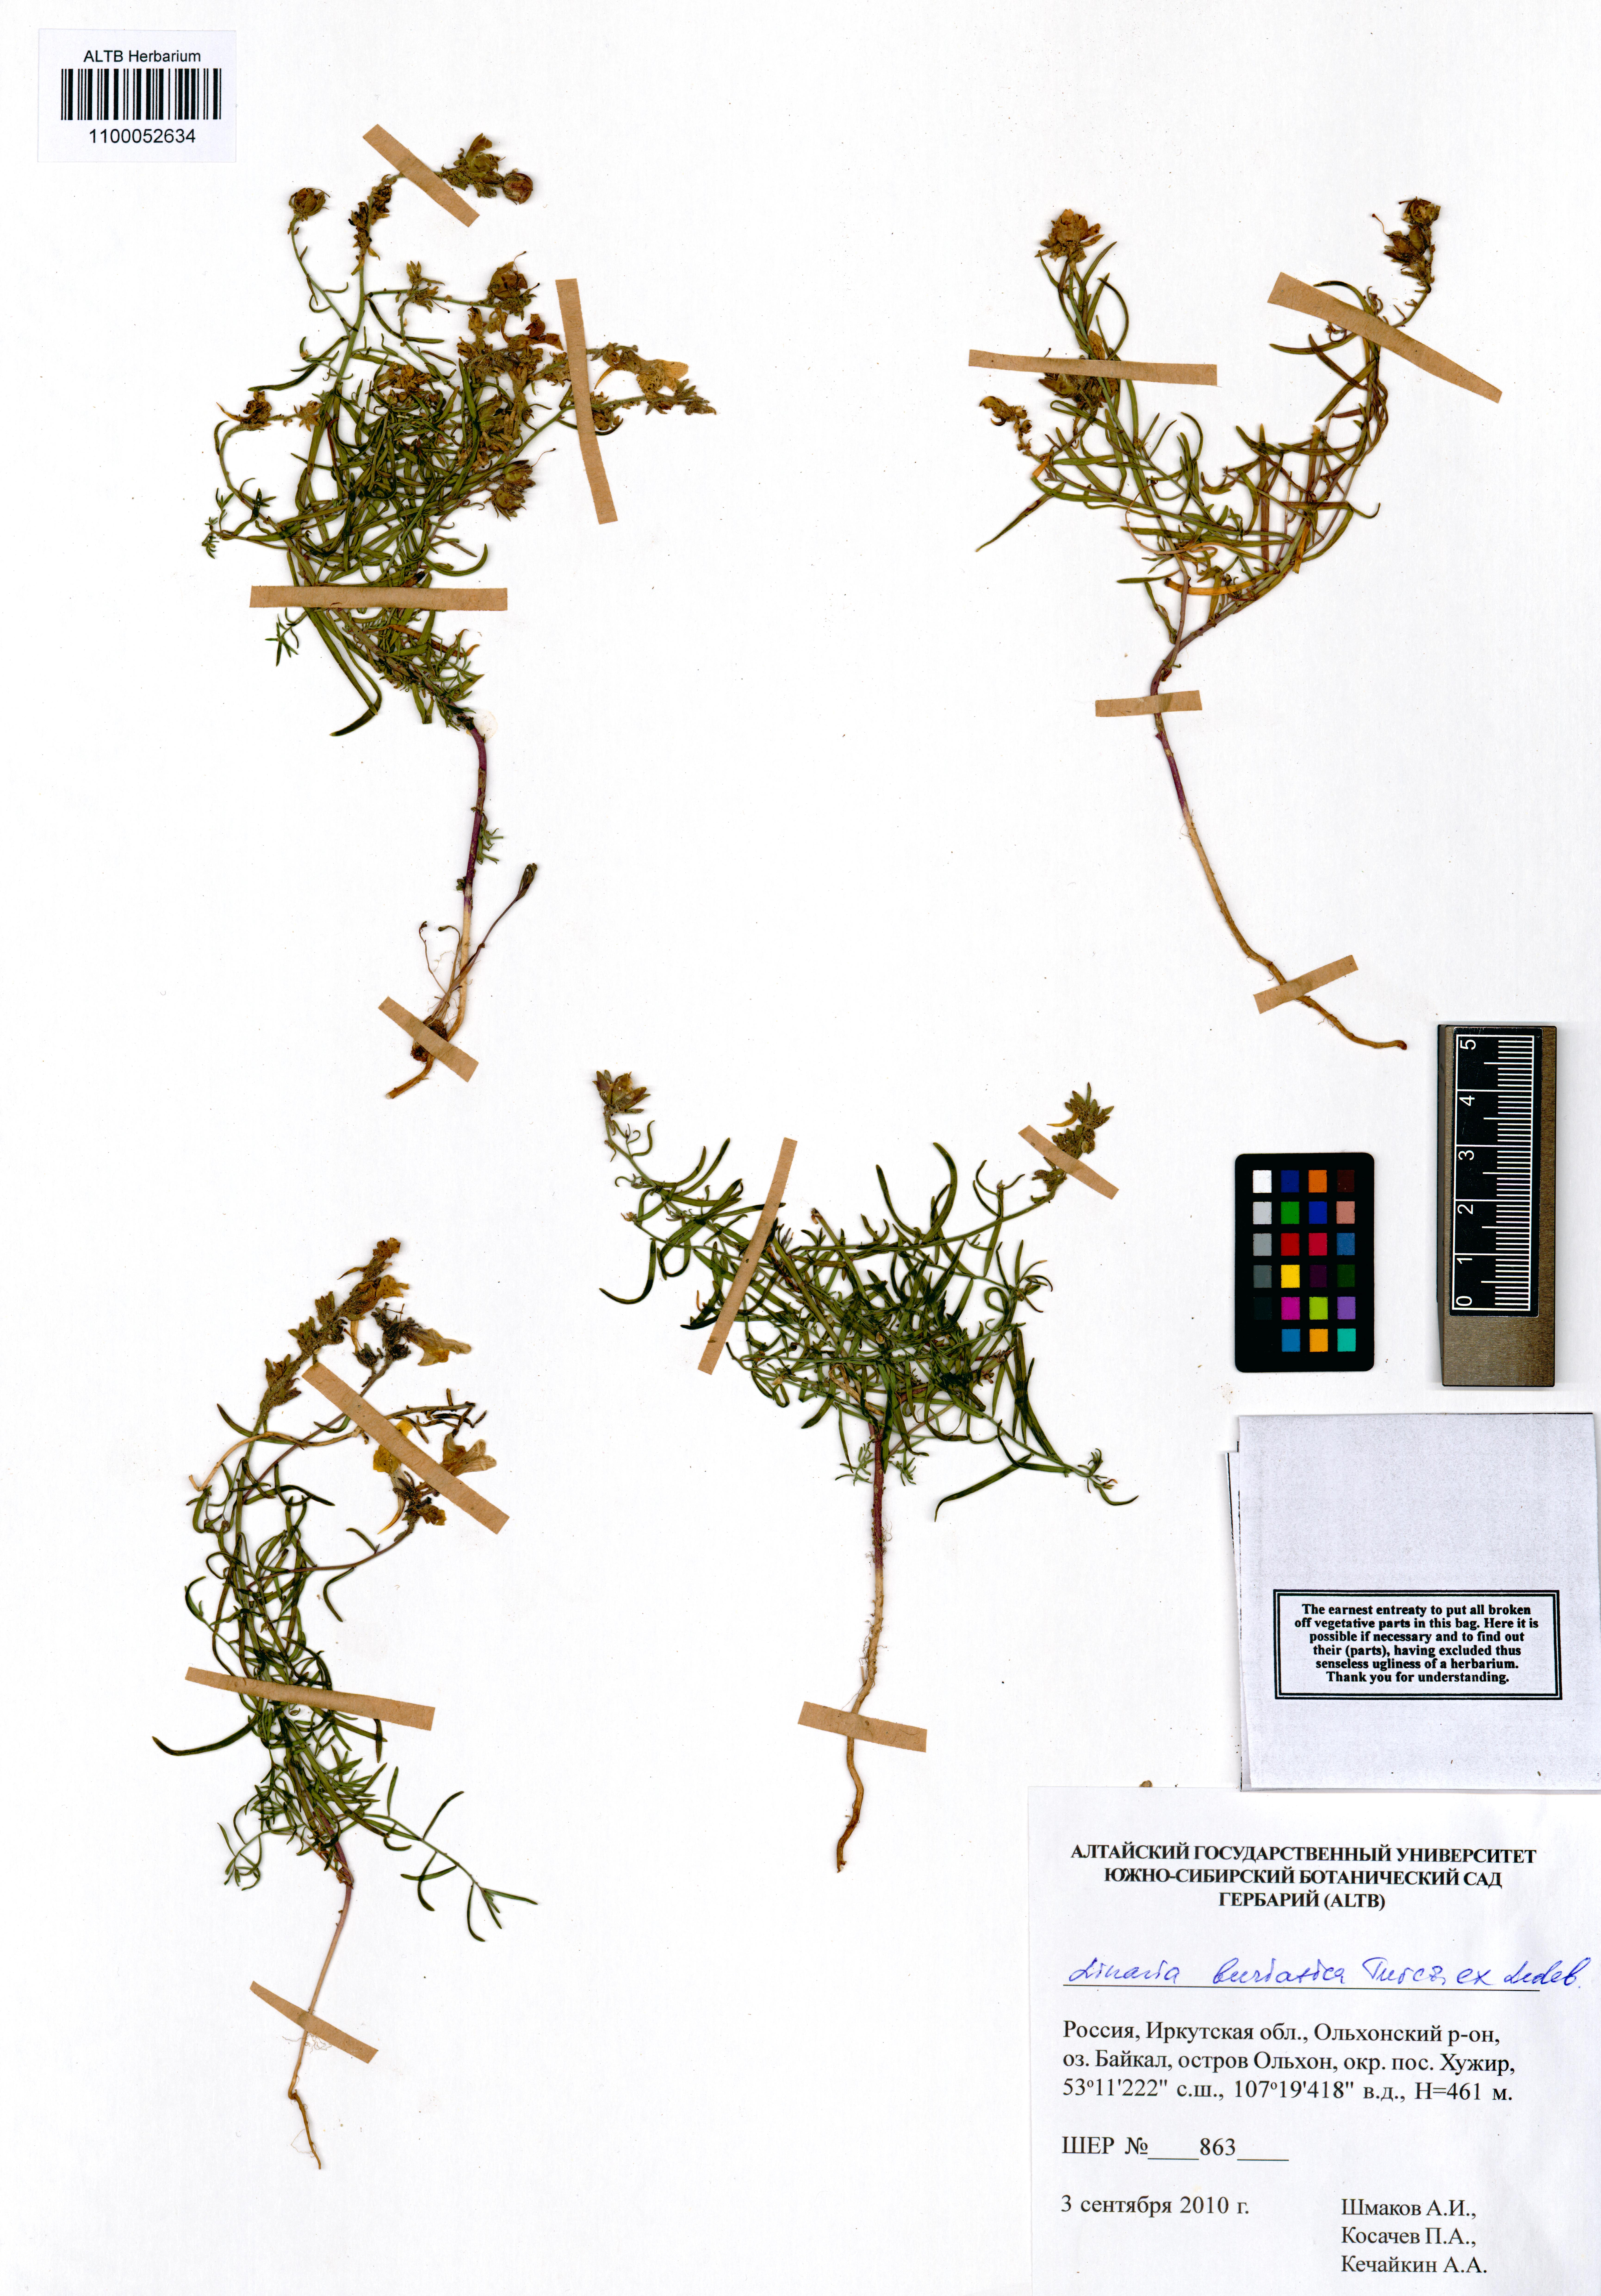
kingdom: Plantae
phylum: Tracheophyta
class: Magnoliopsida
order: Lamiales
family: Plantaginaceae
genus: Linaria
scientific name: Linaria buriatica
